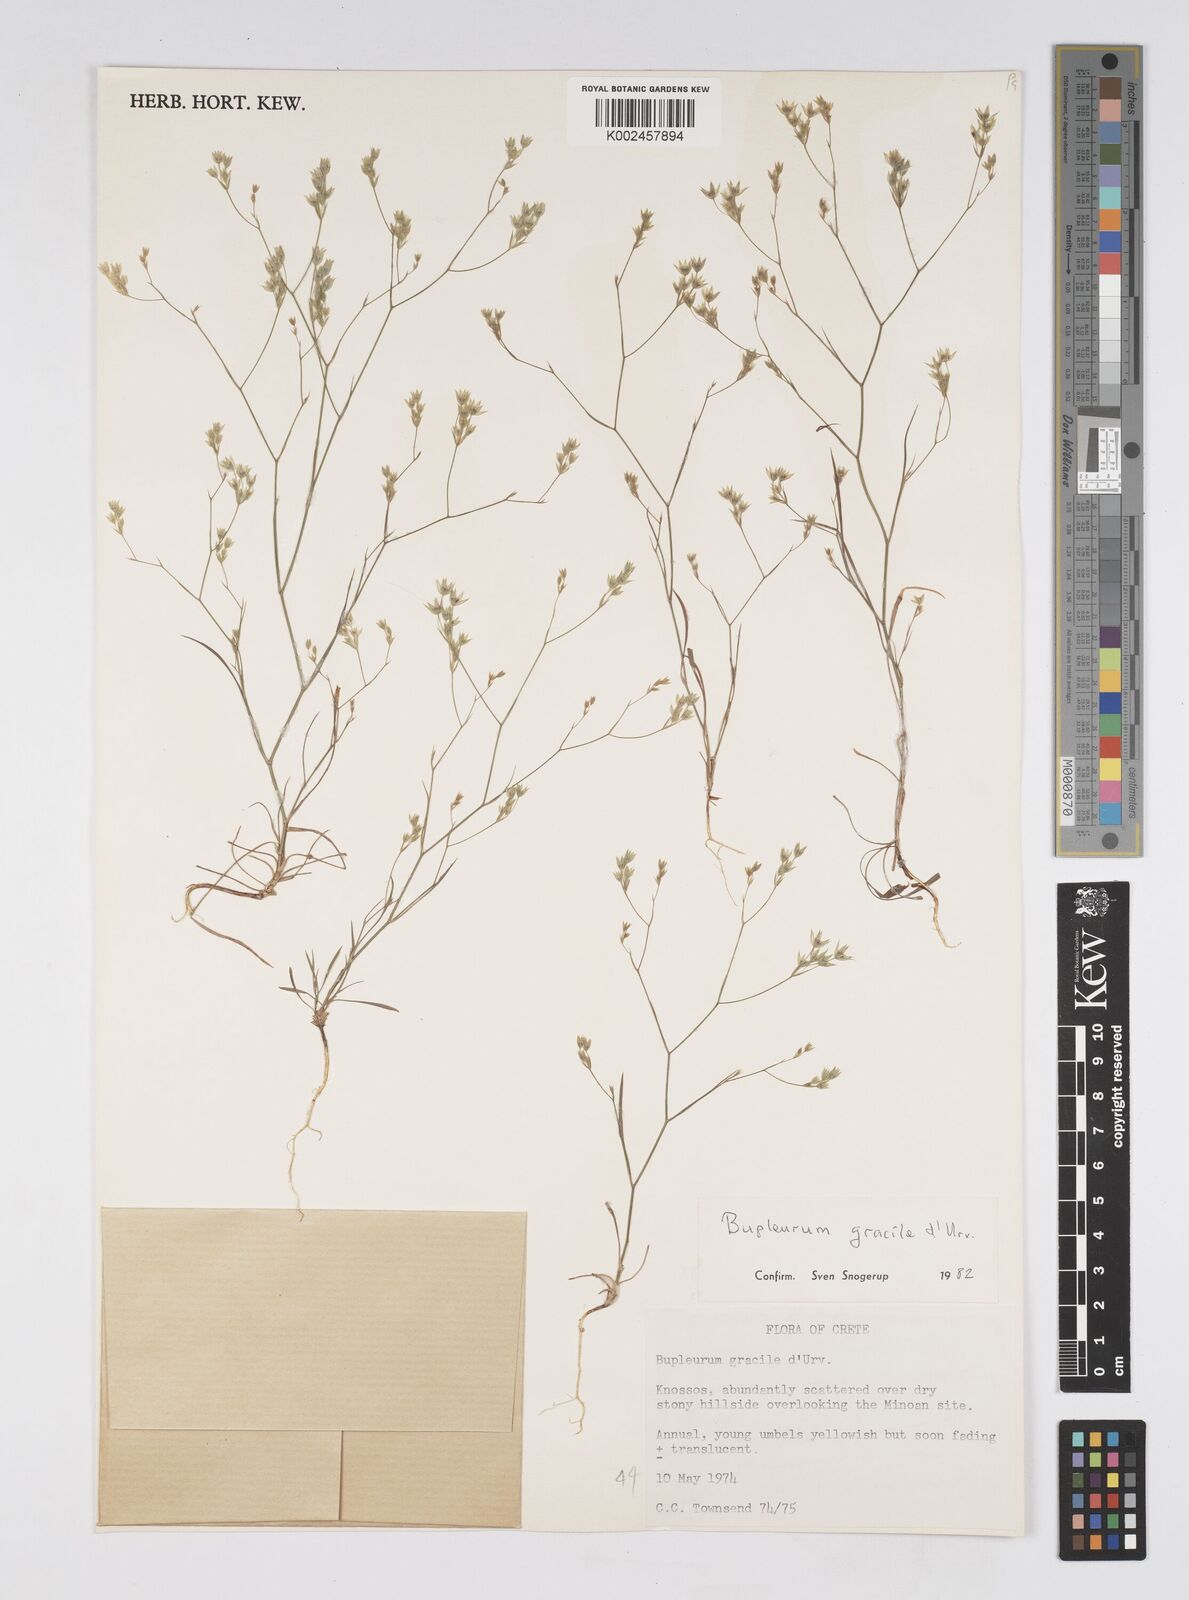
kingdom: Plantae
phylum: Tracheophyta
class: Magnoliopsida
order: Apiales
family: Apiaceae
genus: Bupleurum
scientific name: Bupleurum gracile
